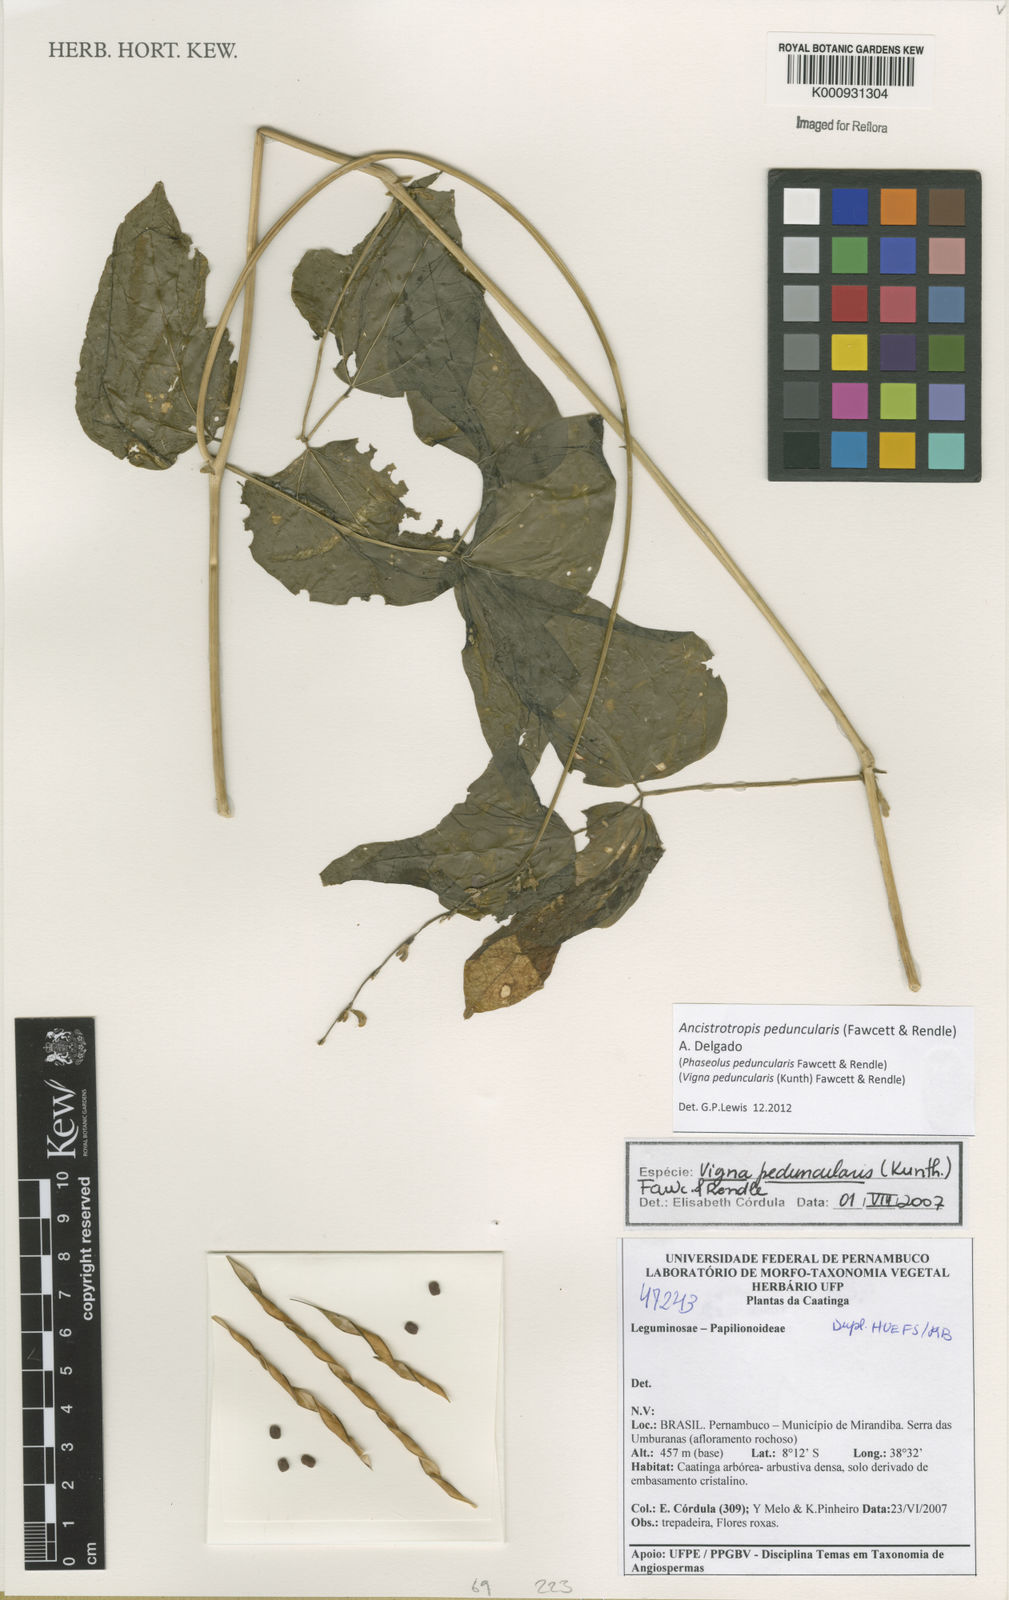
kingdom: Plantae
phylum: Tracheophyta
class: Magnoliopsida
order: Fabales
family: Fabaceae
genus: Ancistrotropis
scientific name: Ancistrotropis peduncularis
